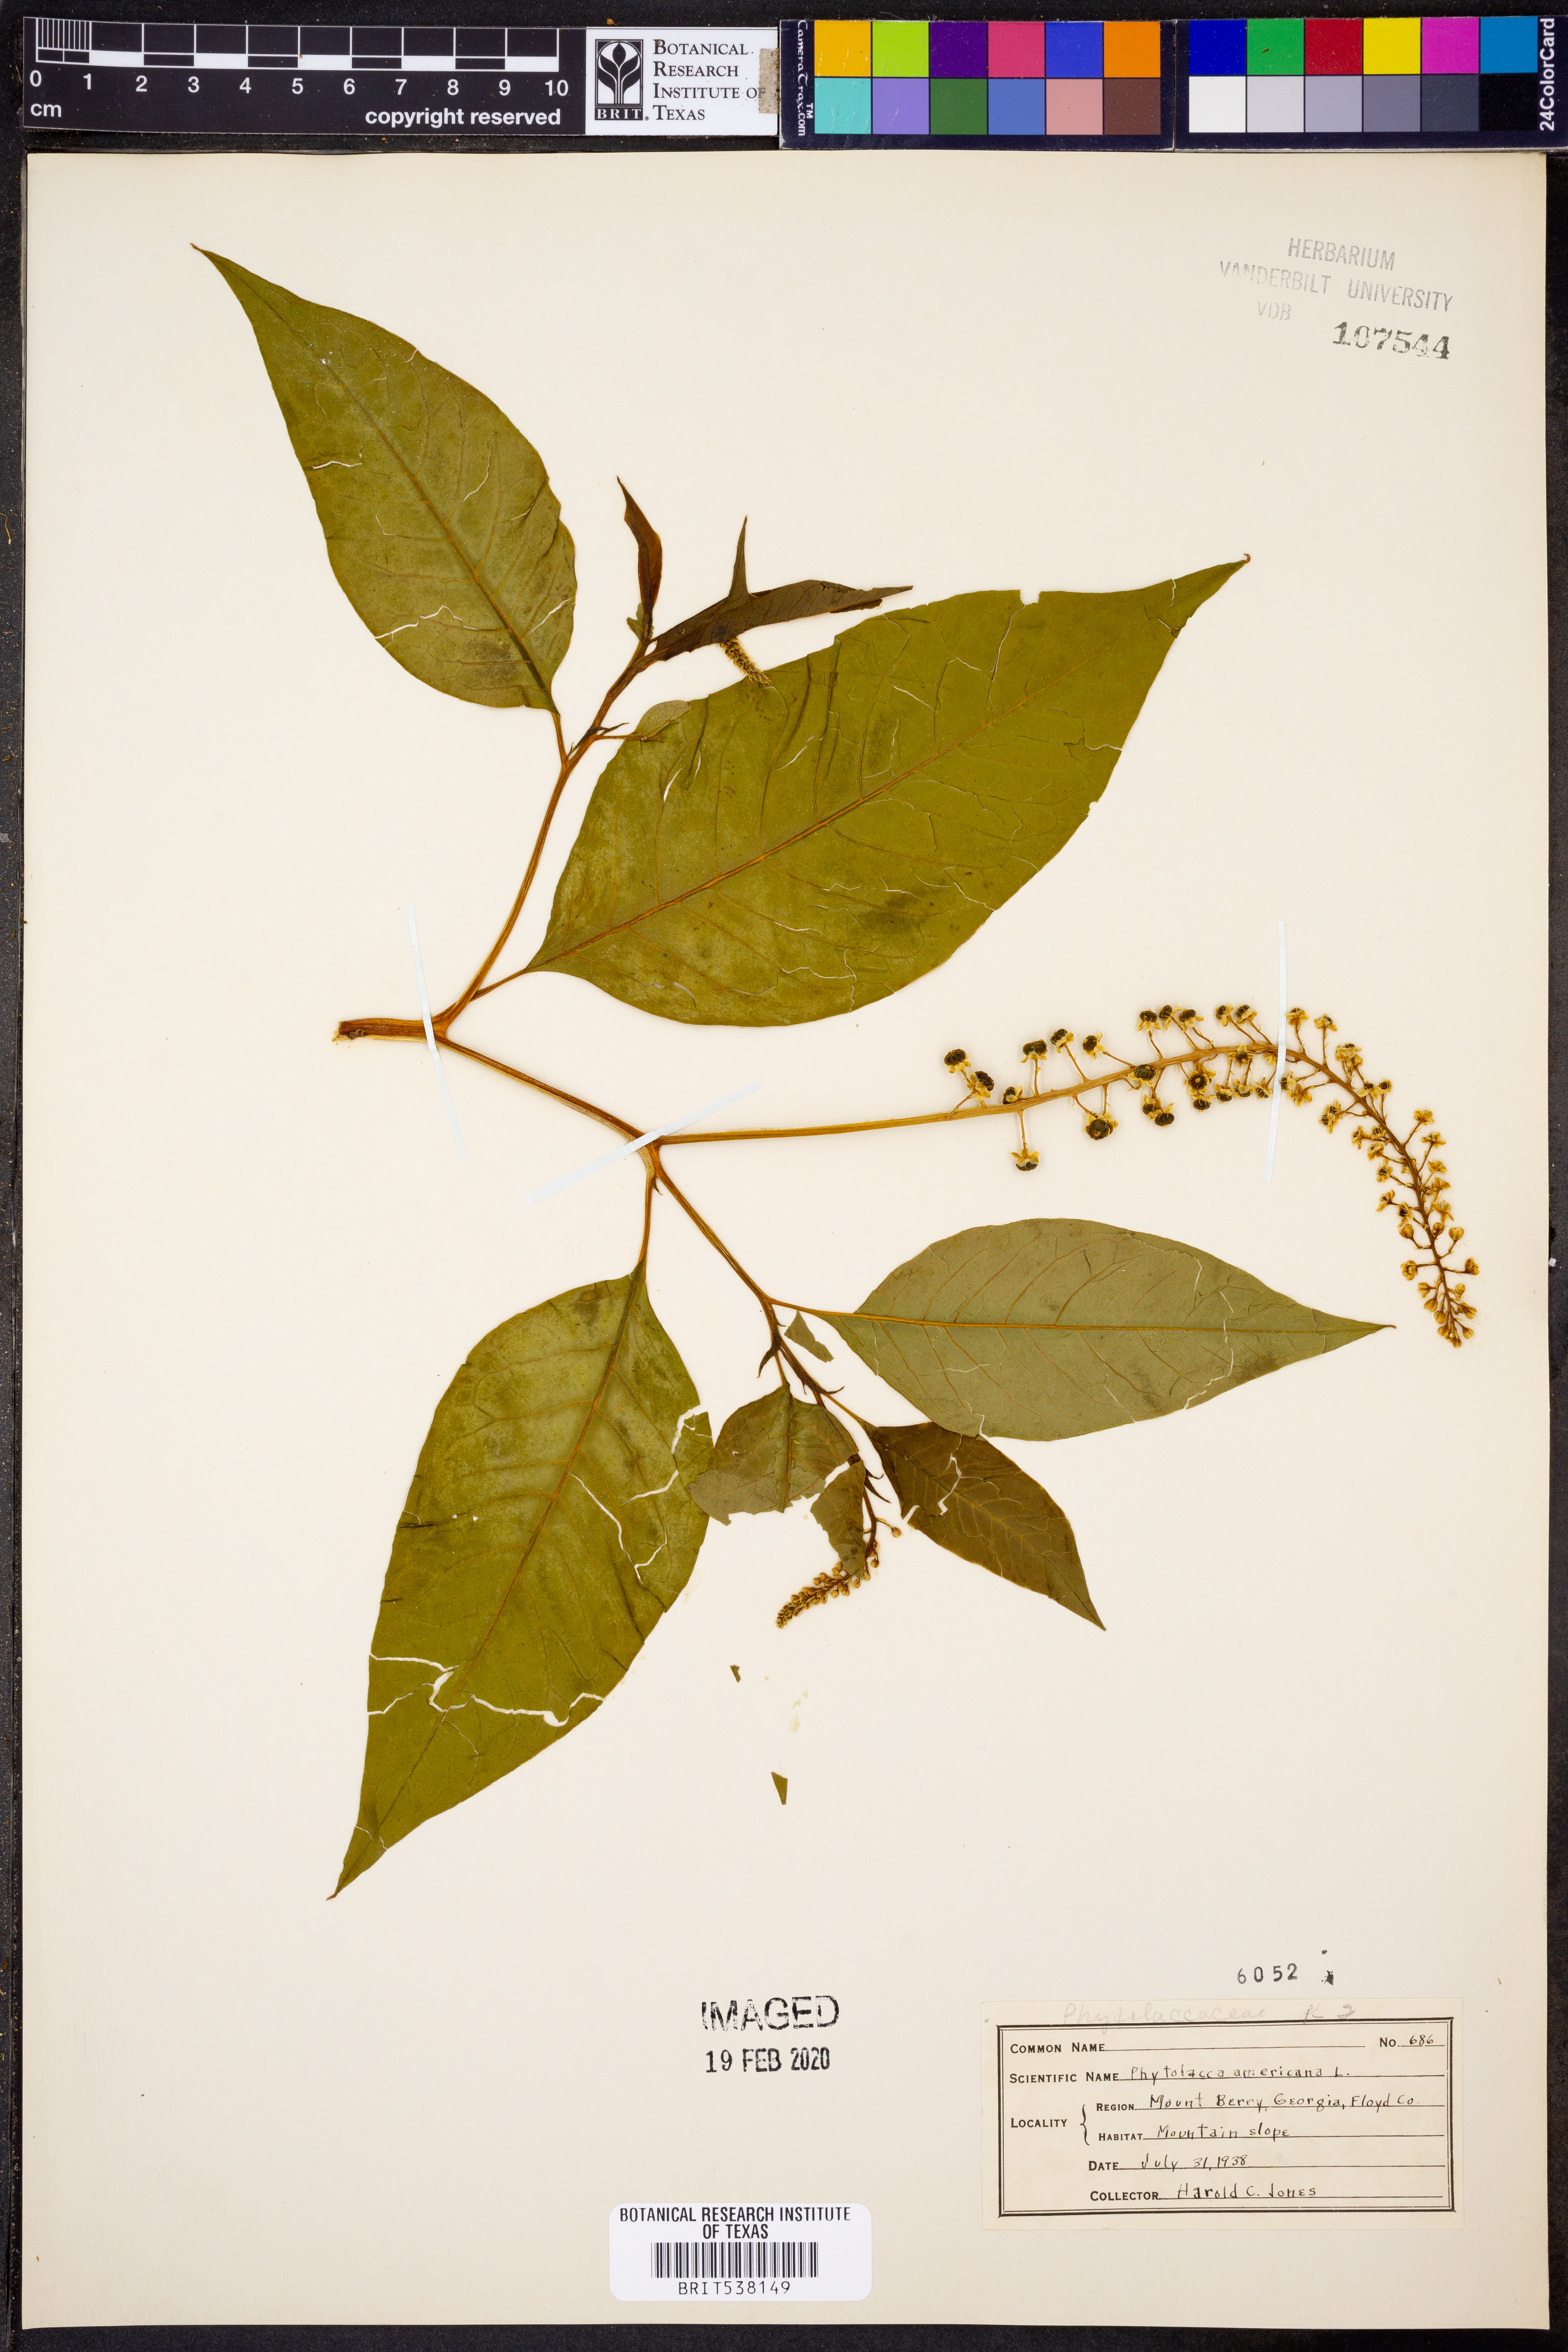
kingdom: Plantae
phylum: Tracheophyta
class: Magnoliopsida
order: Caryophyllales
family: Phytolaccaceae
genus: Phytolacca
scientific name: Phytolacca americana
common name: American pokeweed
